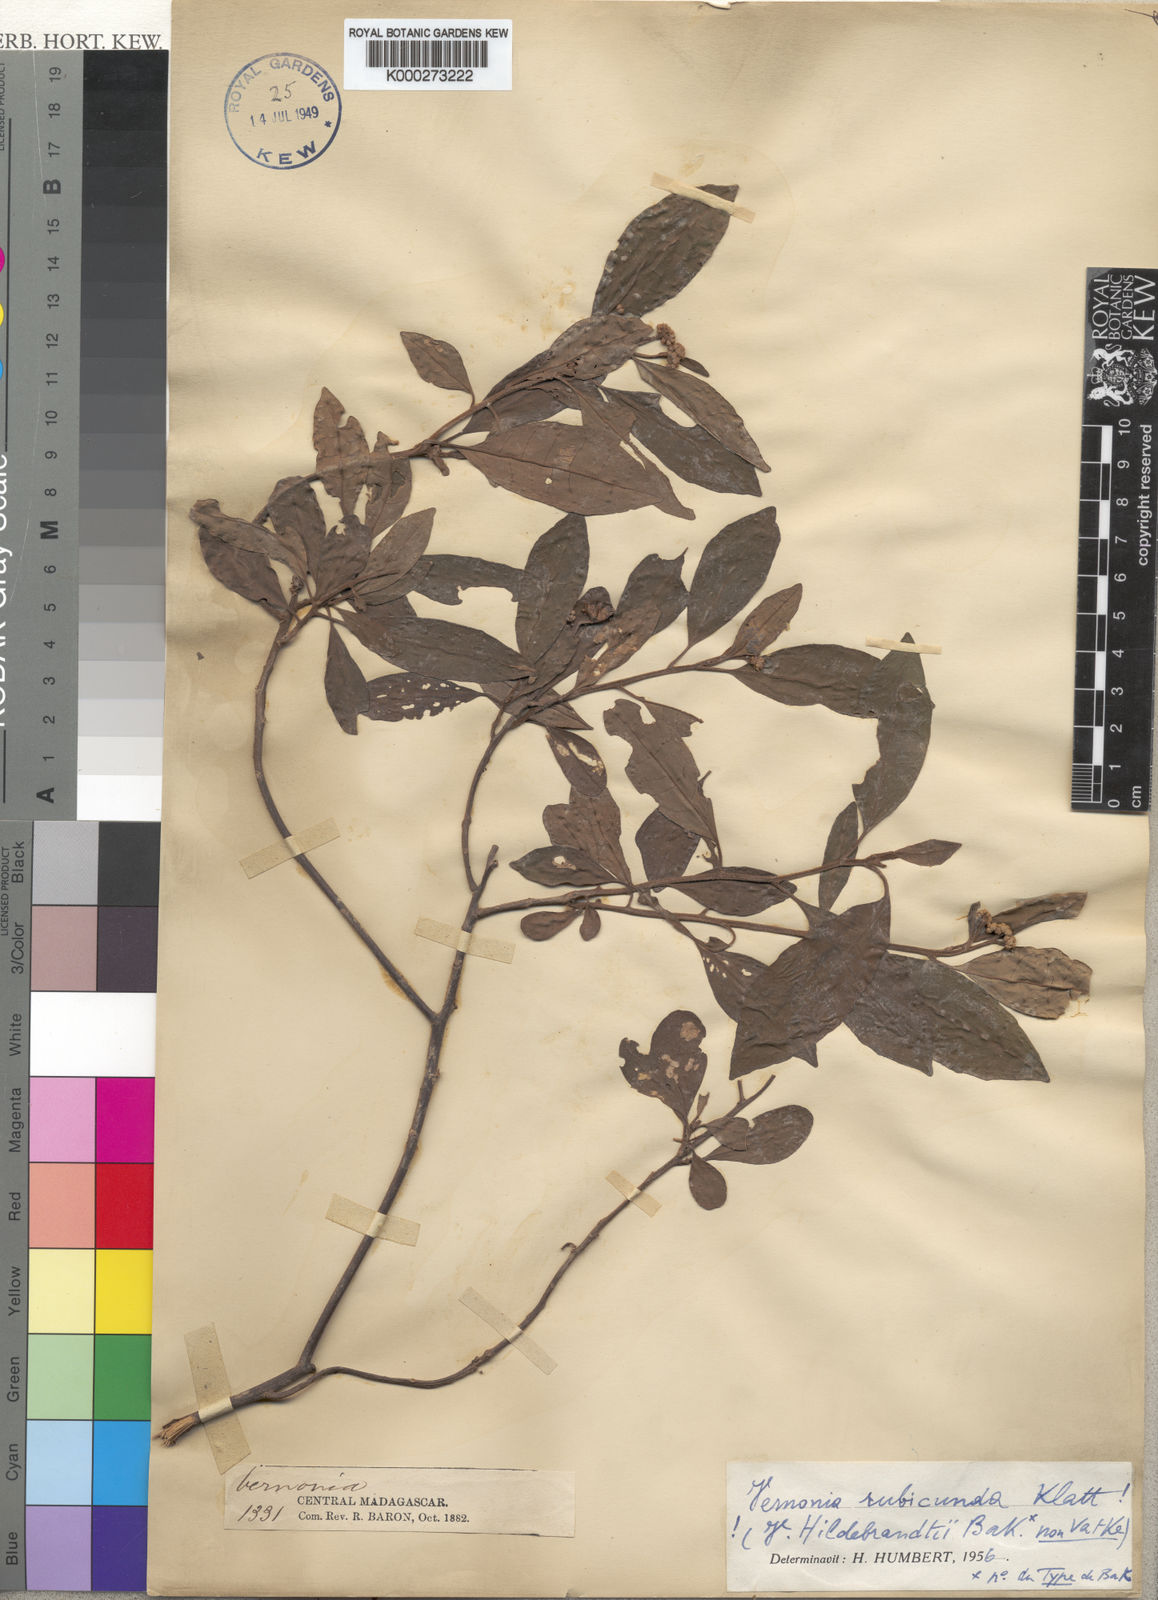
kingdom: Plantae
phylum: Tracheophyta
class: Magnoliopsida
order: Asterales
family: Asteraceae
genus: Jeffreycia
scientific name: Jeffreycia hildebrandtii
